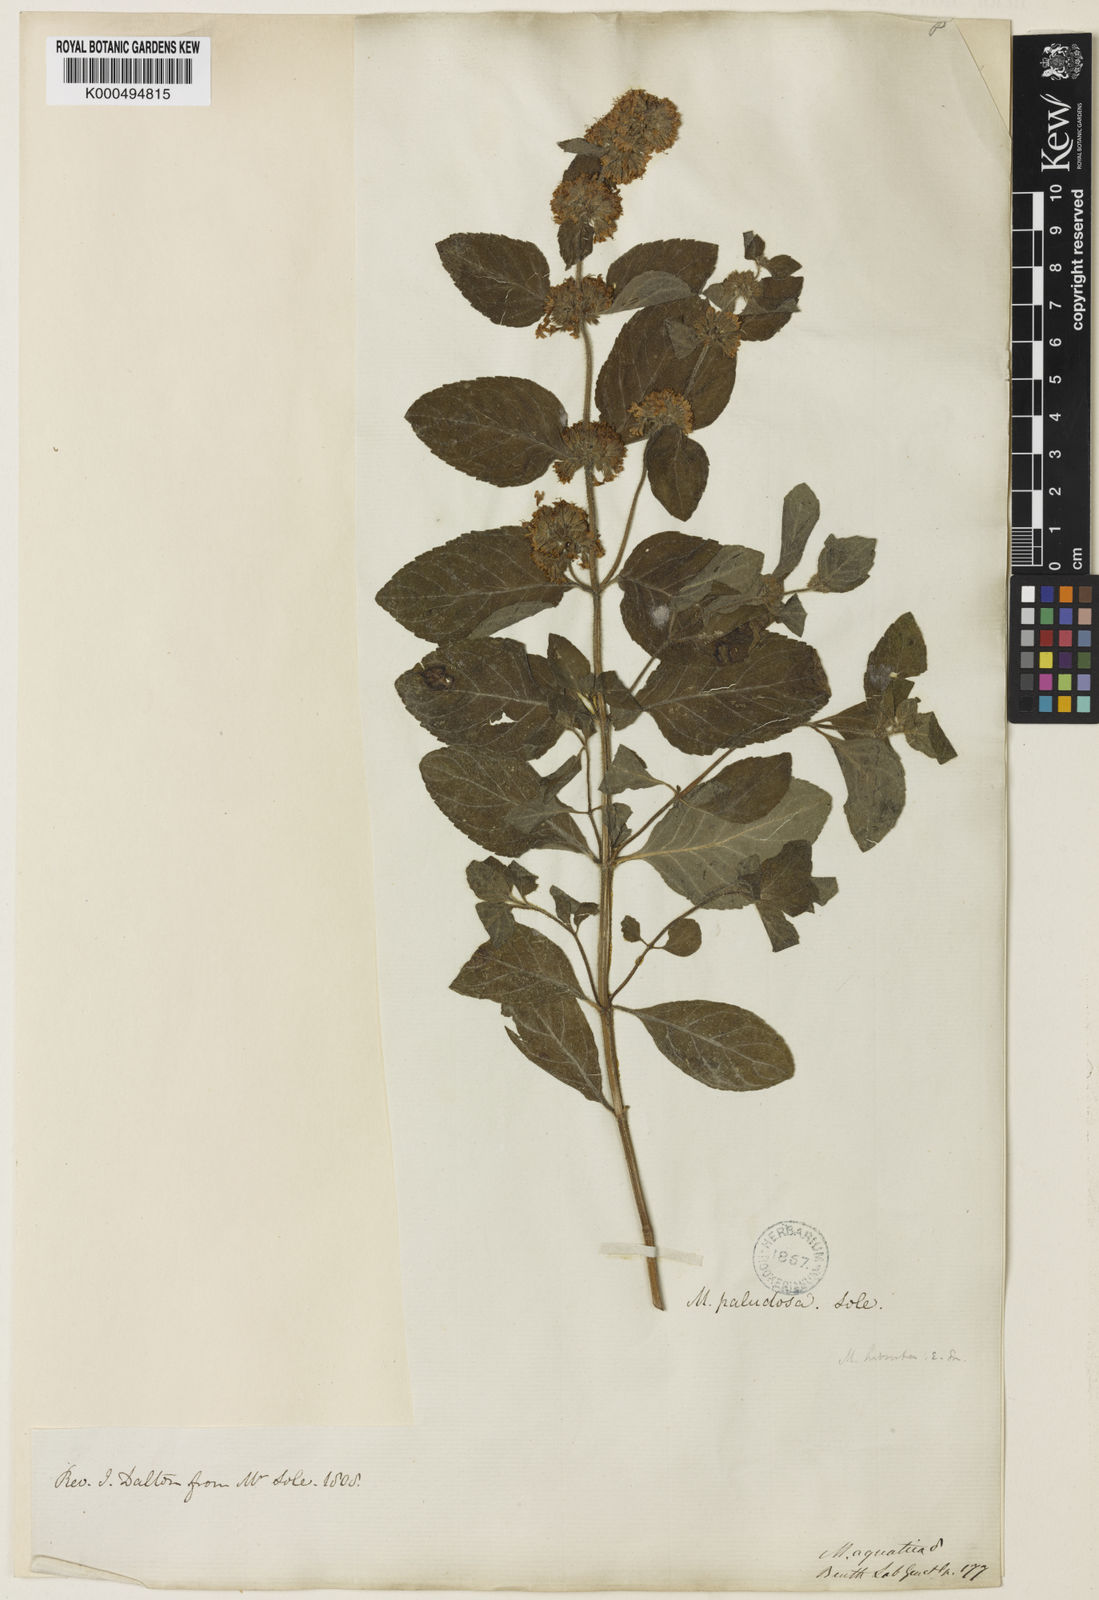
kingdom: Plantae
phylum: Tracheophyta
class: Magnoliopsida
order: Lamiales
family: Lamiaceae
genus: Mentha
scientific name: Mentha aquatica
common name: Water mint
